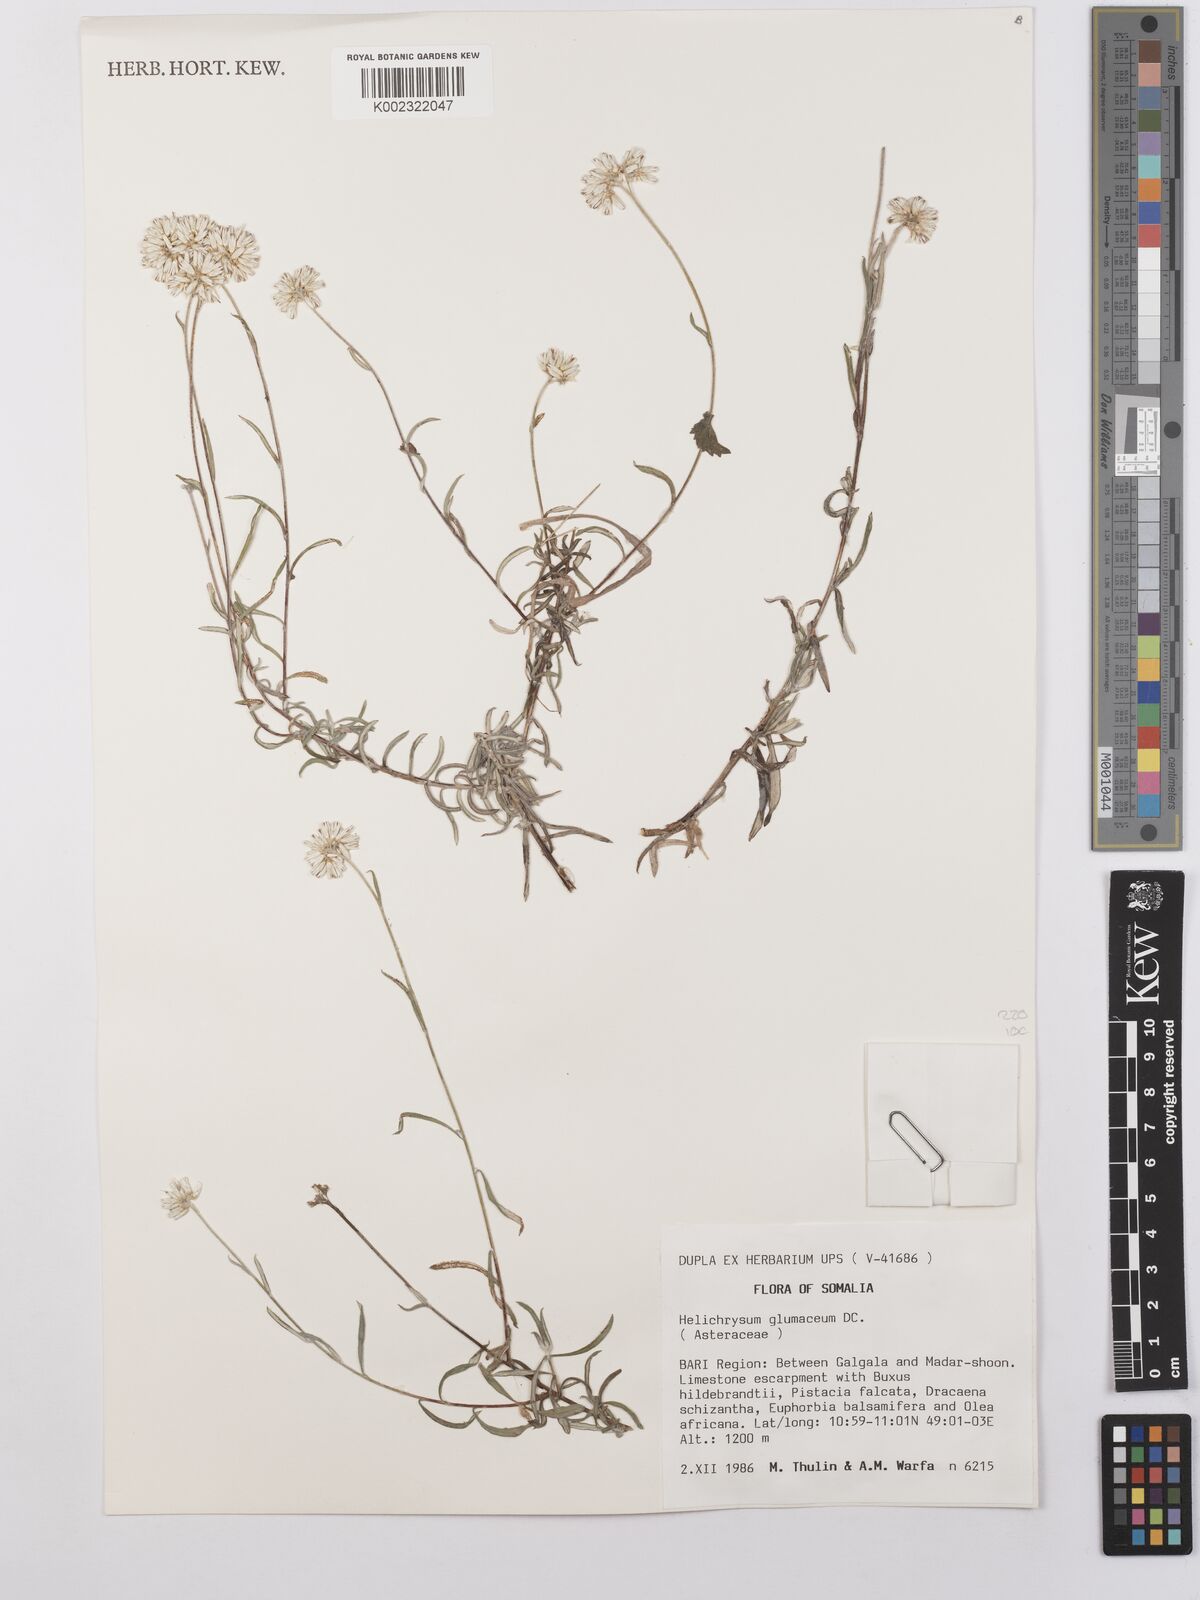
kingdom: Plantae
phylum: Tracheophyta
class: Magnoliopsida
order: Asterales
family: Asteraceae
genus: Helichrysum
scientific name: Helichrysum glumaceum
